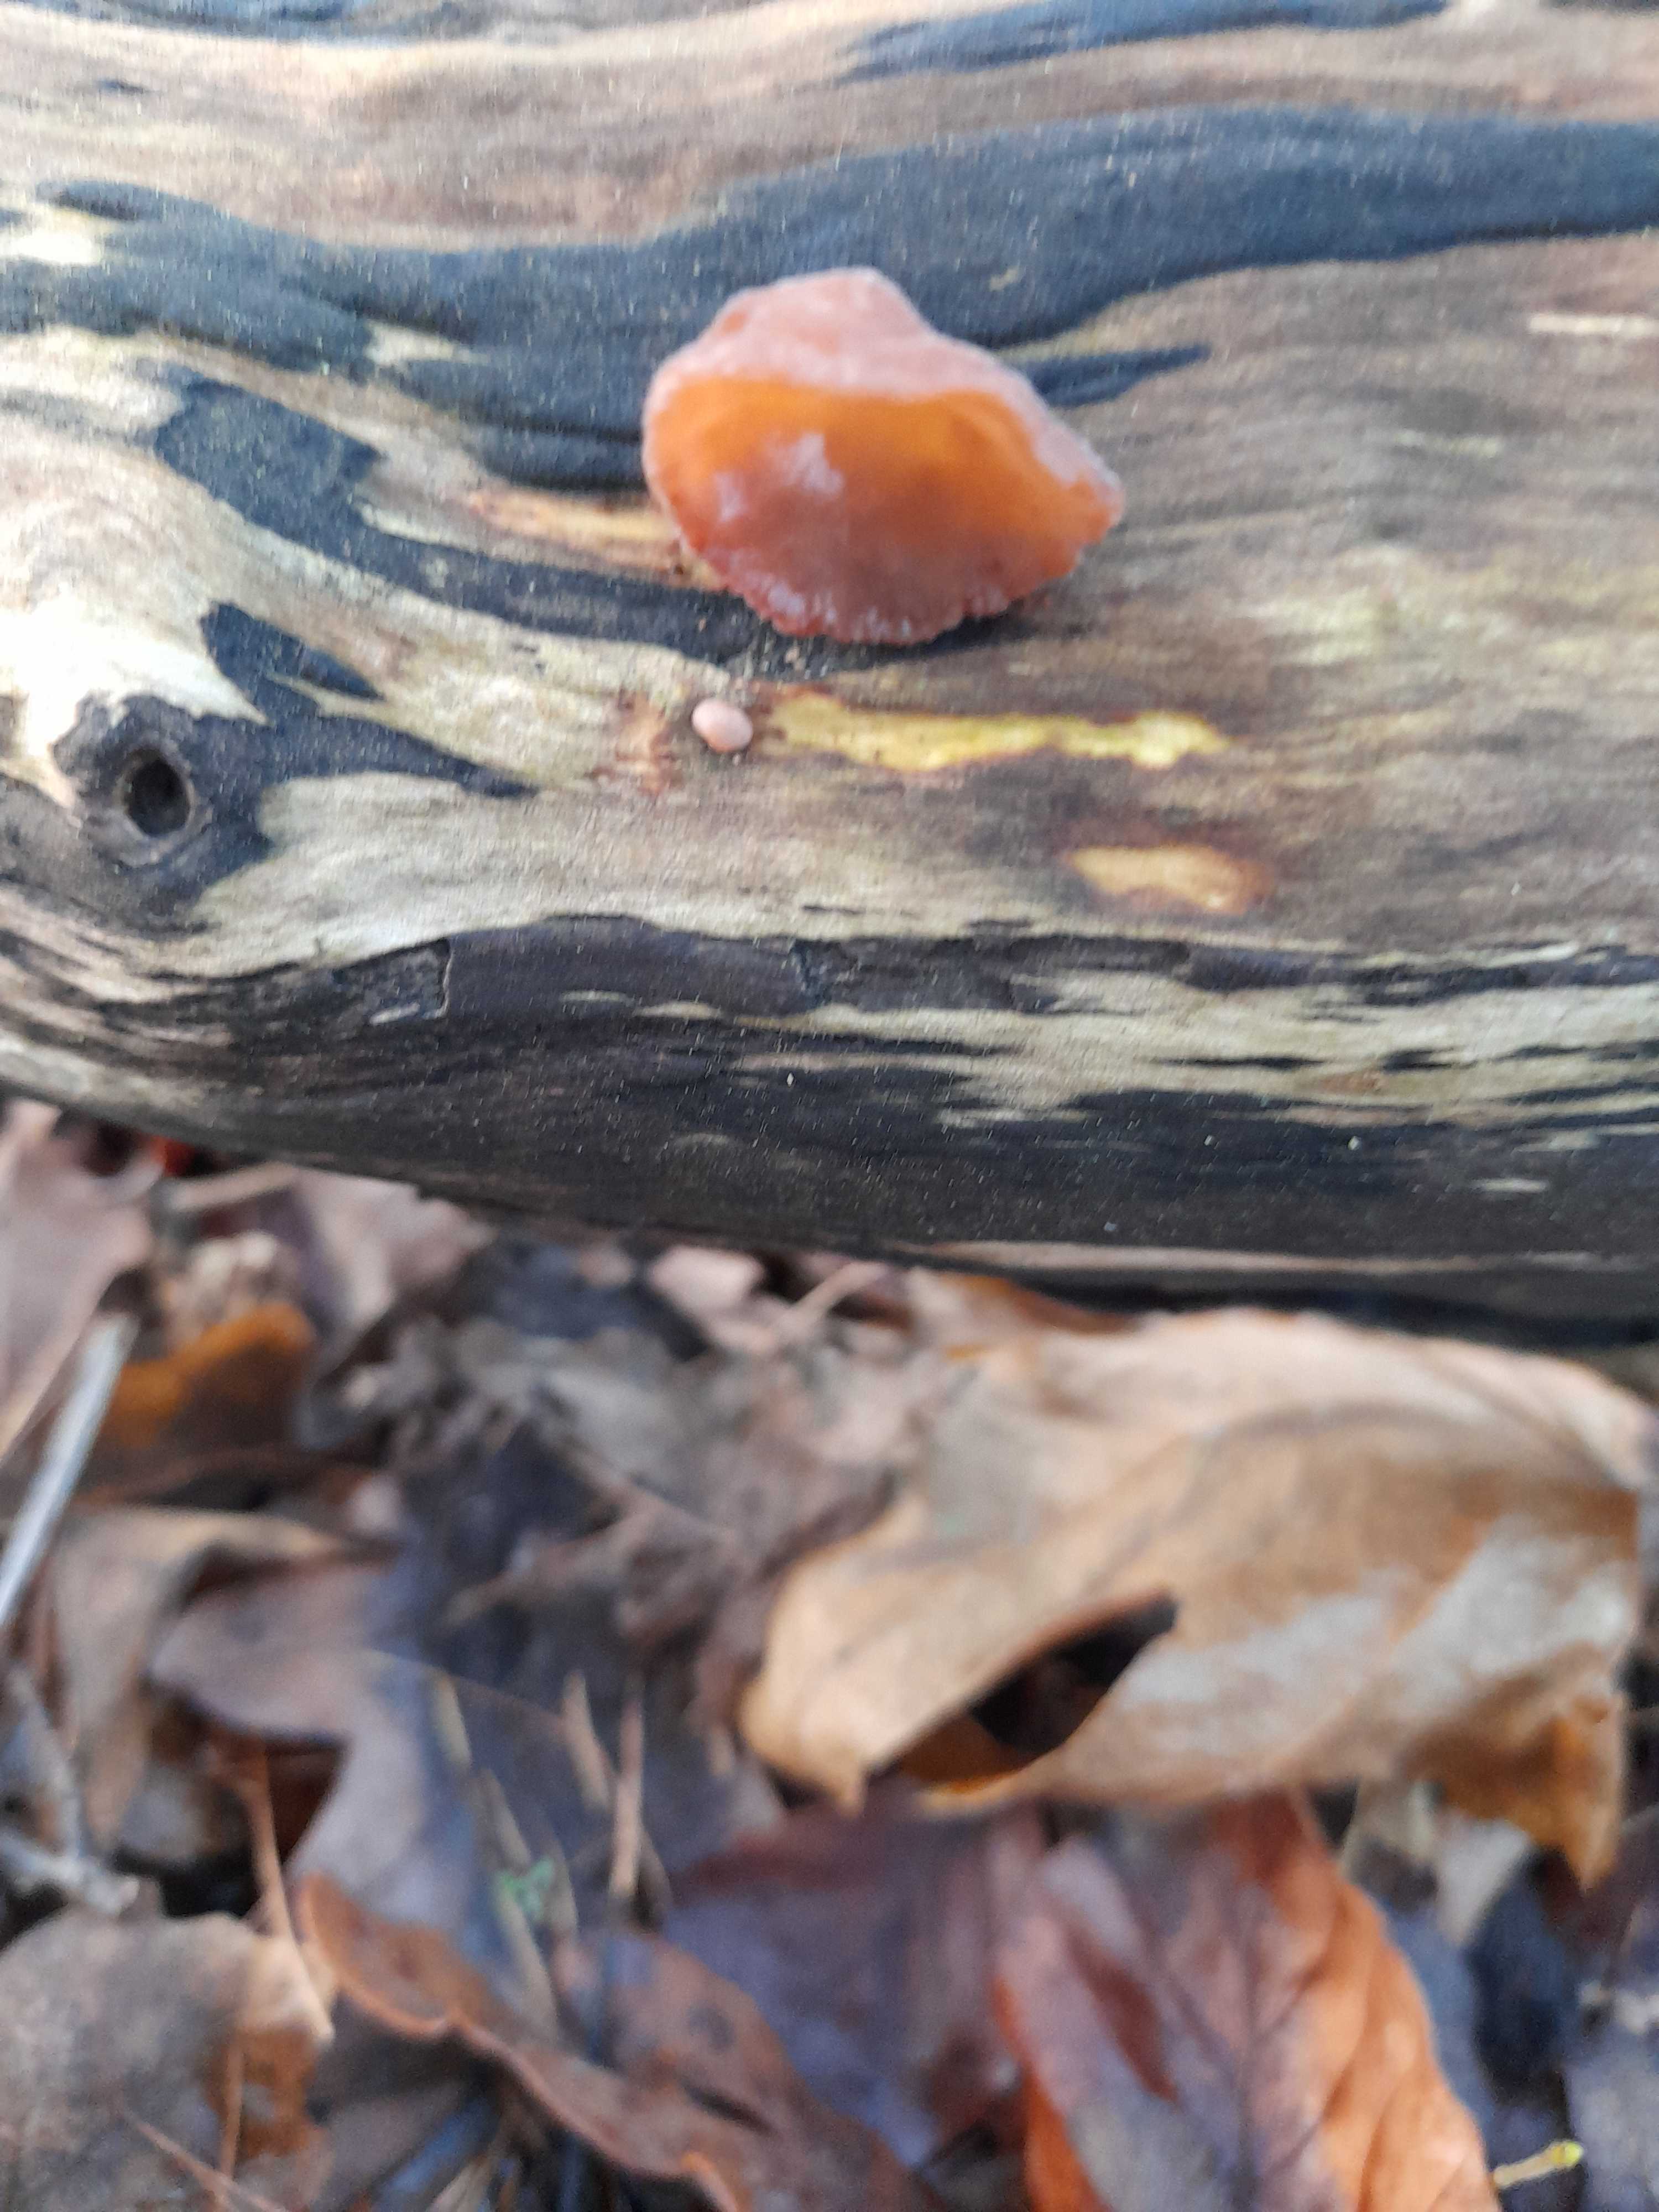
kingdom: Fungi
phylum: Basidiomycota
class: Agaricomycetes
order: Auriculariales
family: Auriculariaceae
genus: Auricularia
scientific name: Auricularia auricula-judae
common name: almindelig judasøre
